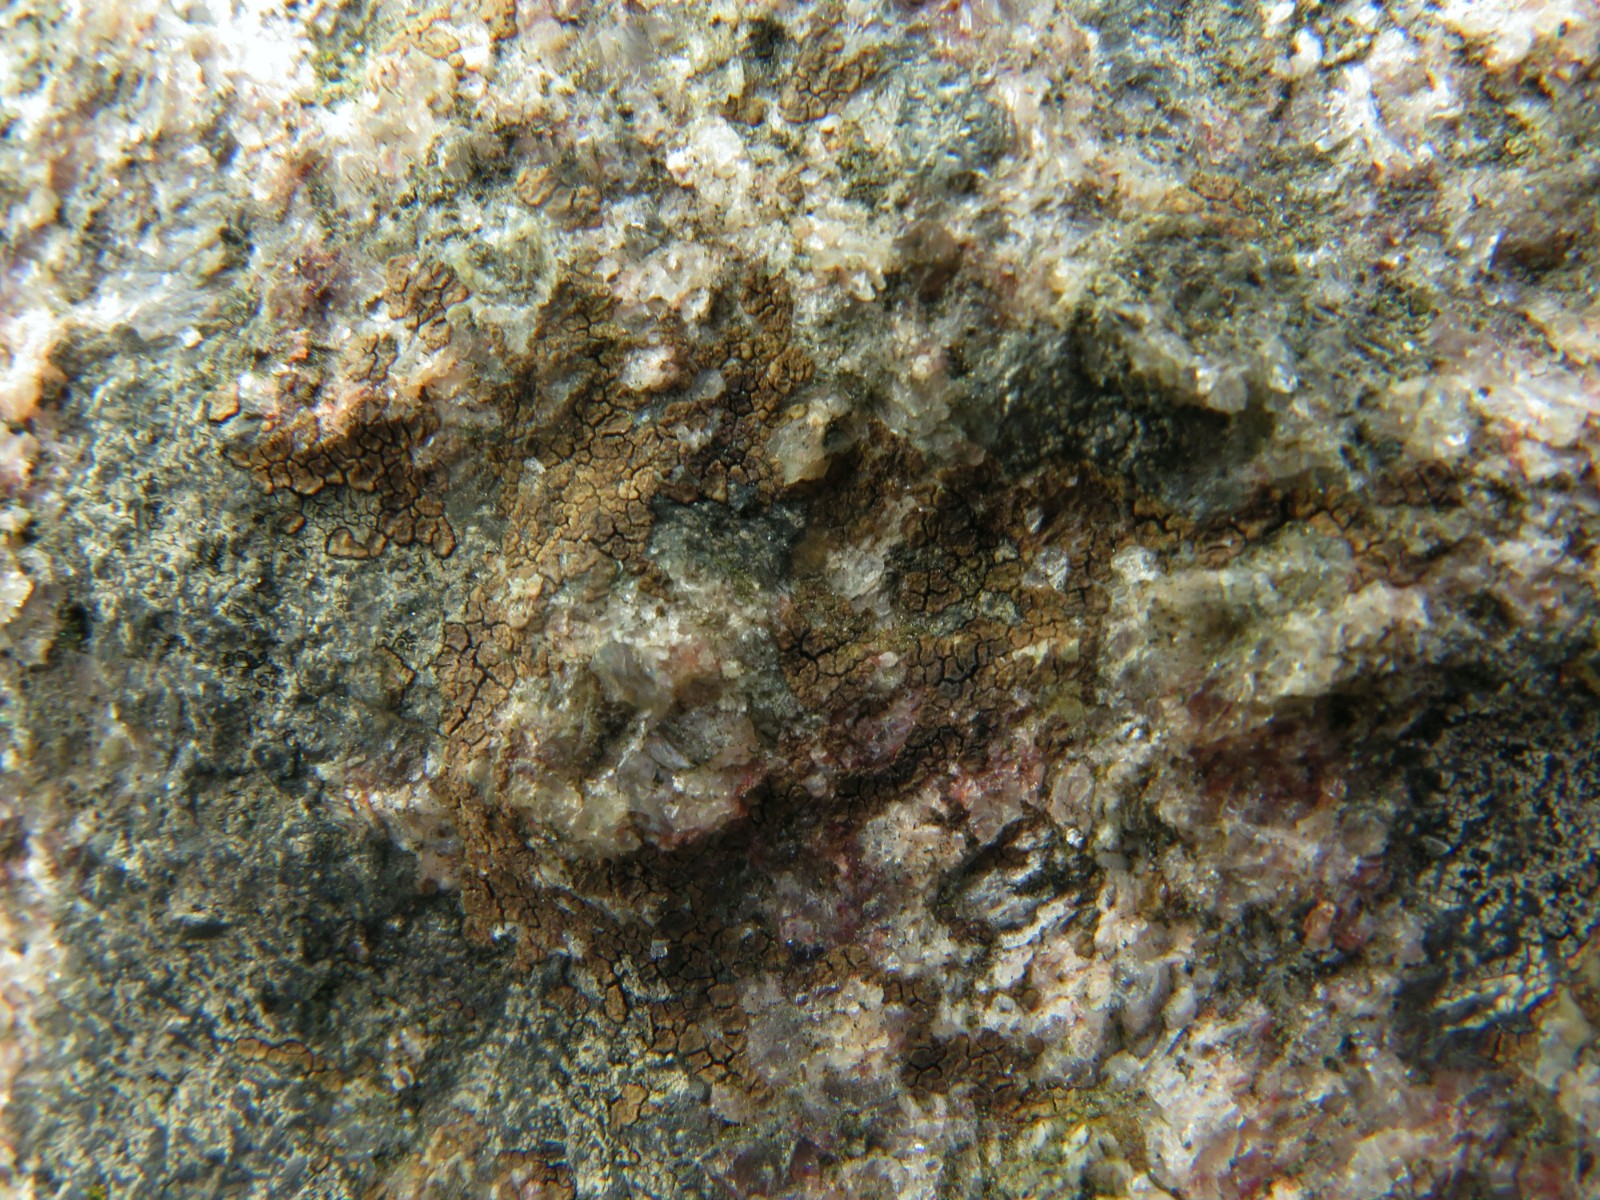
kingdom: Fungi
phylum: Ascomycota
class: Lecanoromycetes
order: Acarosporales
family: Acarosporaceae
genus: Acarospora
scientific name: Acarospora fuscata
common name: brun småsporelav
